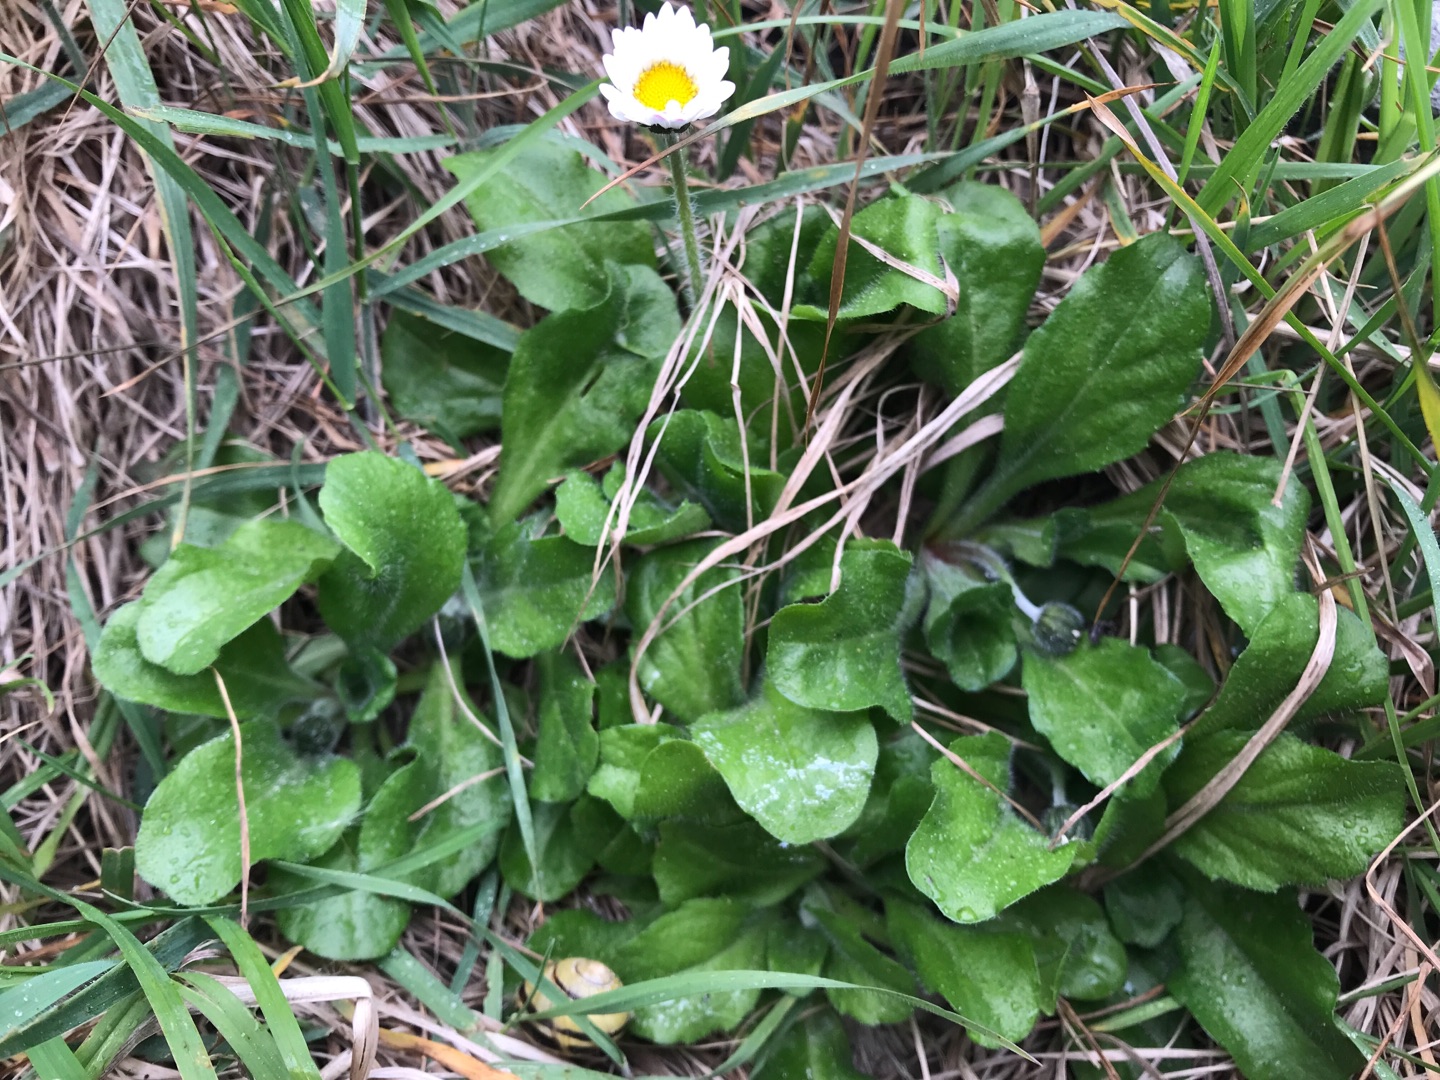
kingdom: Plantae
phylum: Tracheophyta
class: Magnoliopsida
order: Asterales
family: Asteraceae
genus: Bellis
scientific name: Bellis perennis
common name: Tusindfryd
